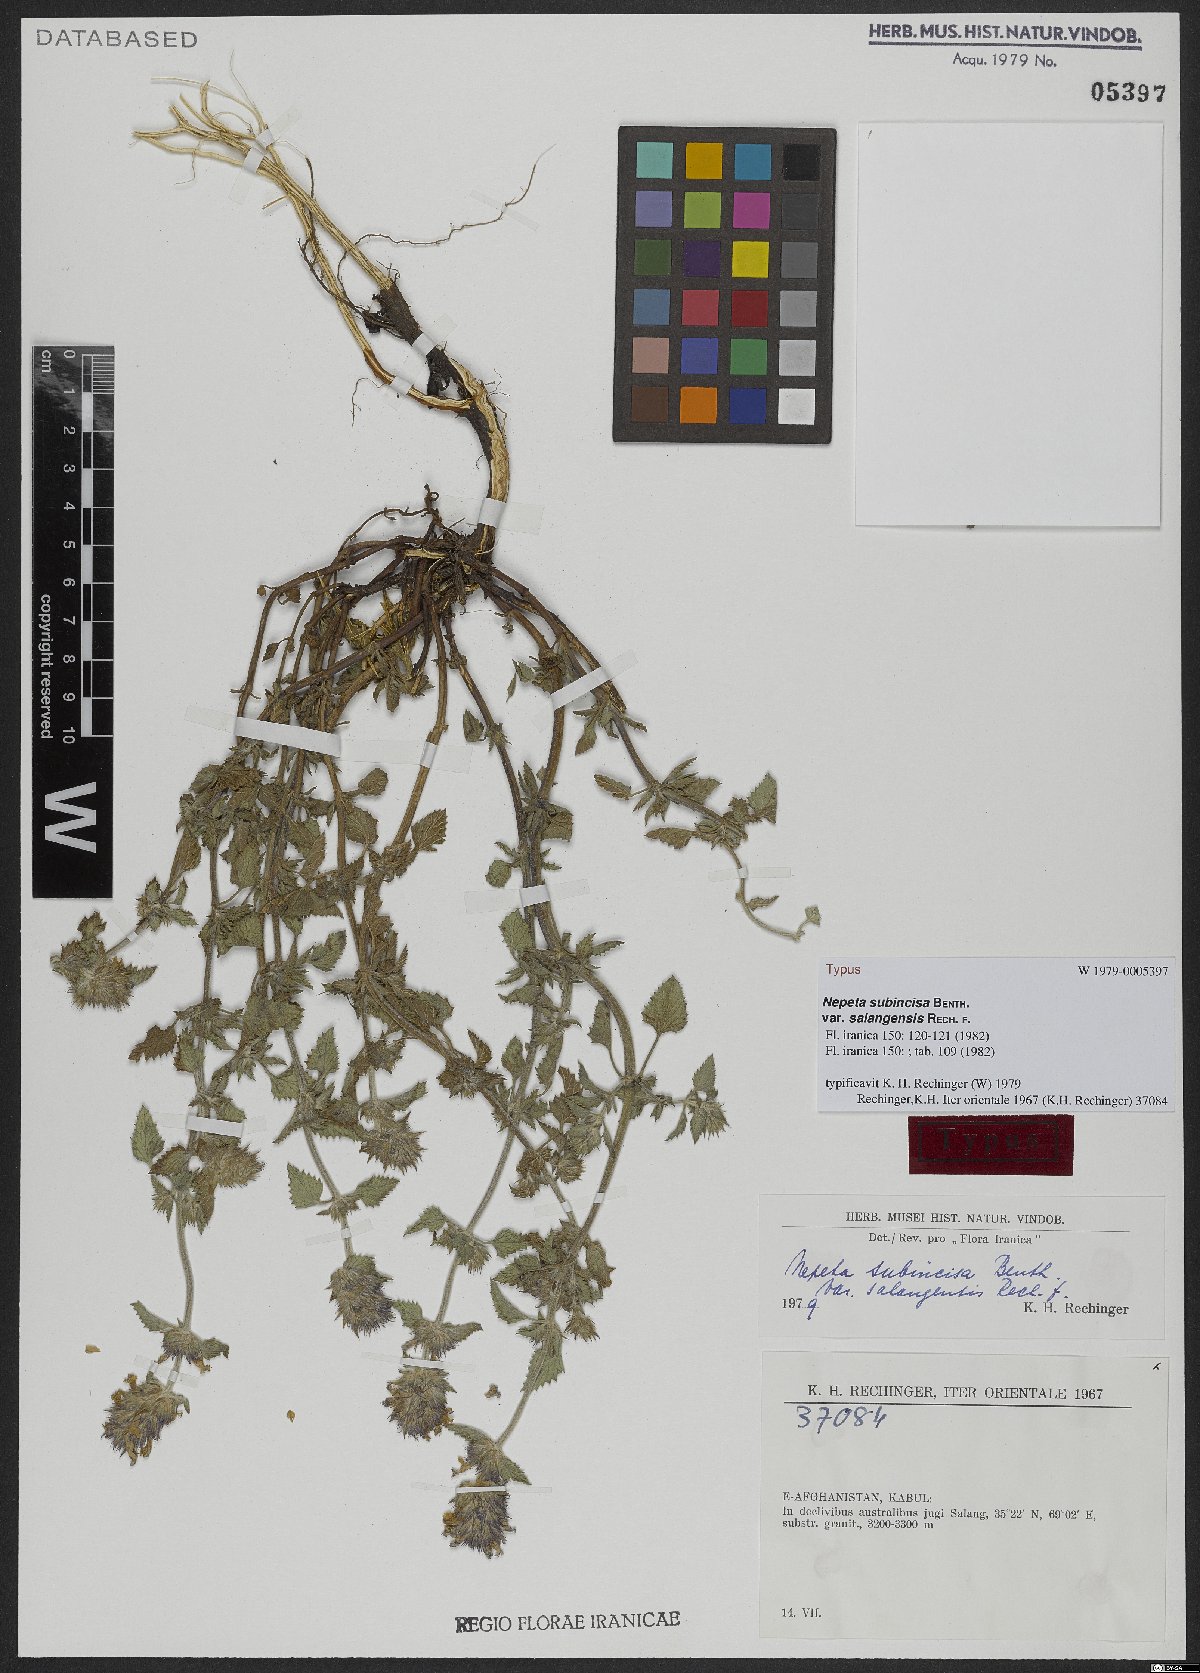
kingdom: Plantae
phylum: Tracheophyta
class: Magnoliopsida
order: Lamiales
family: Lamiaceae
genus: Nepeta
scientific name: Nepeta subincisa
